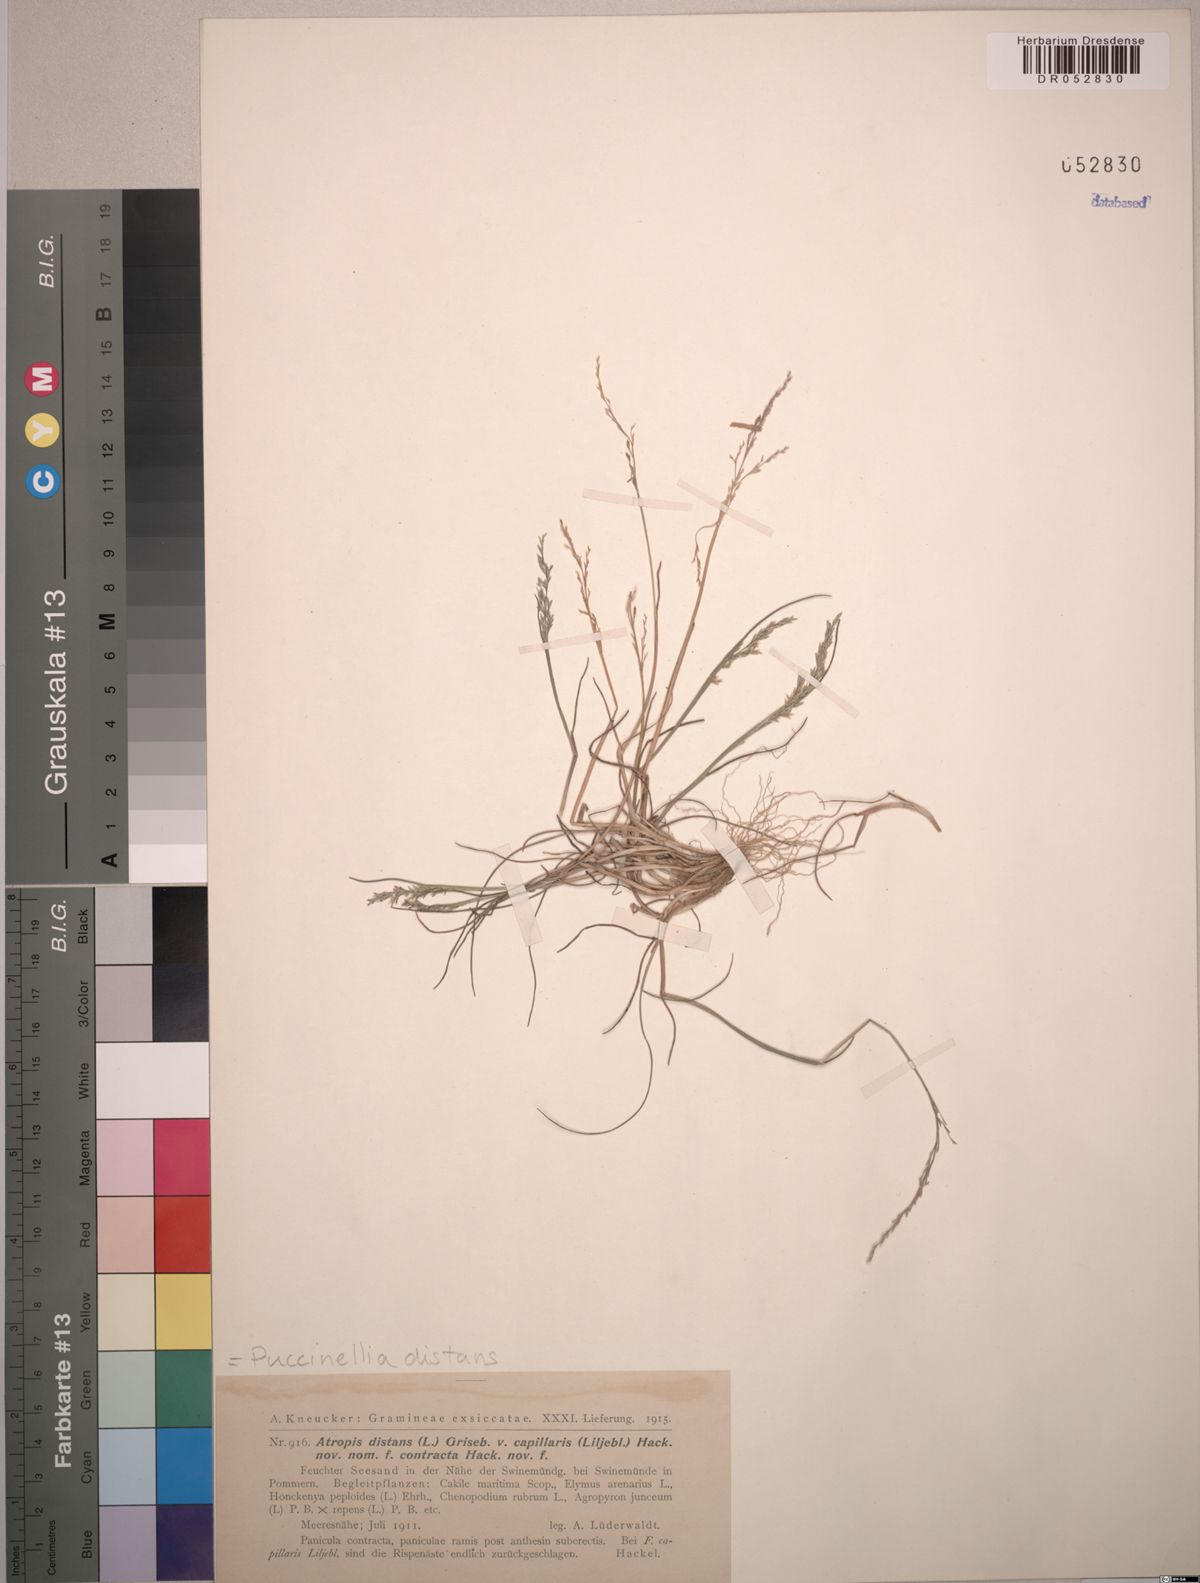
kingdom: Plantae
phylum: Tracheophyta
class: Liliopsida
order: Poales
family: Poaceae
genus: Puccinellia
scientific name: Puccinellia distans
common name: Weeping alkaligrass
